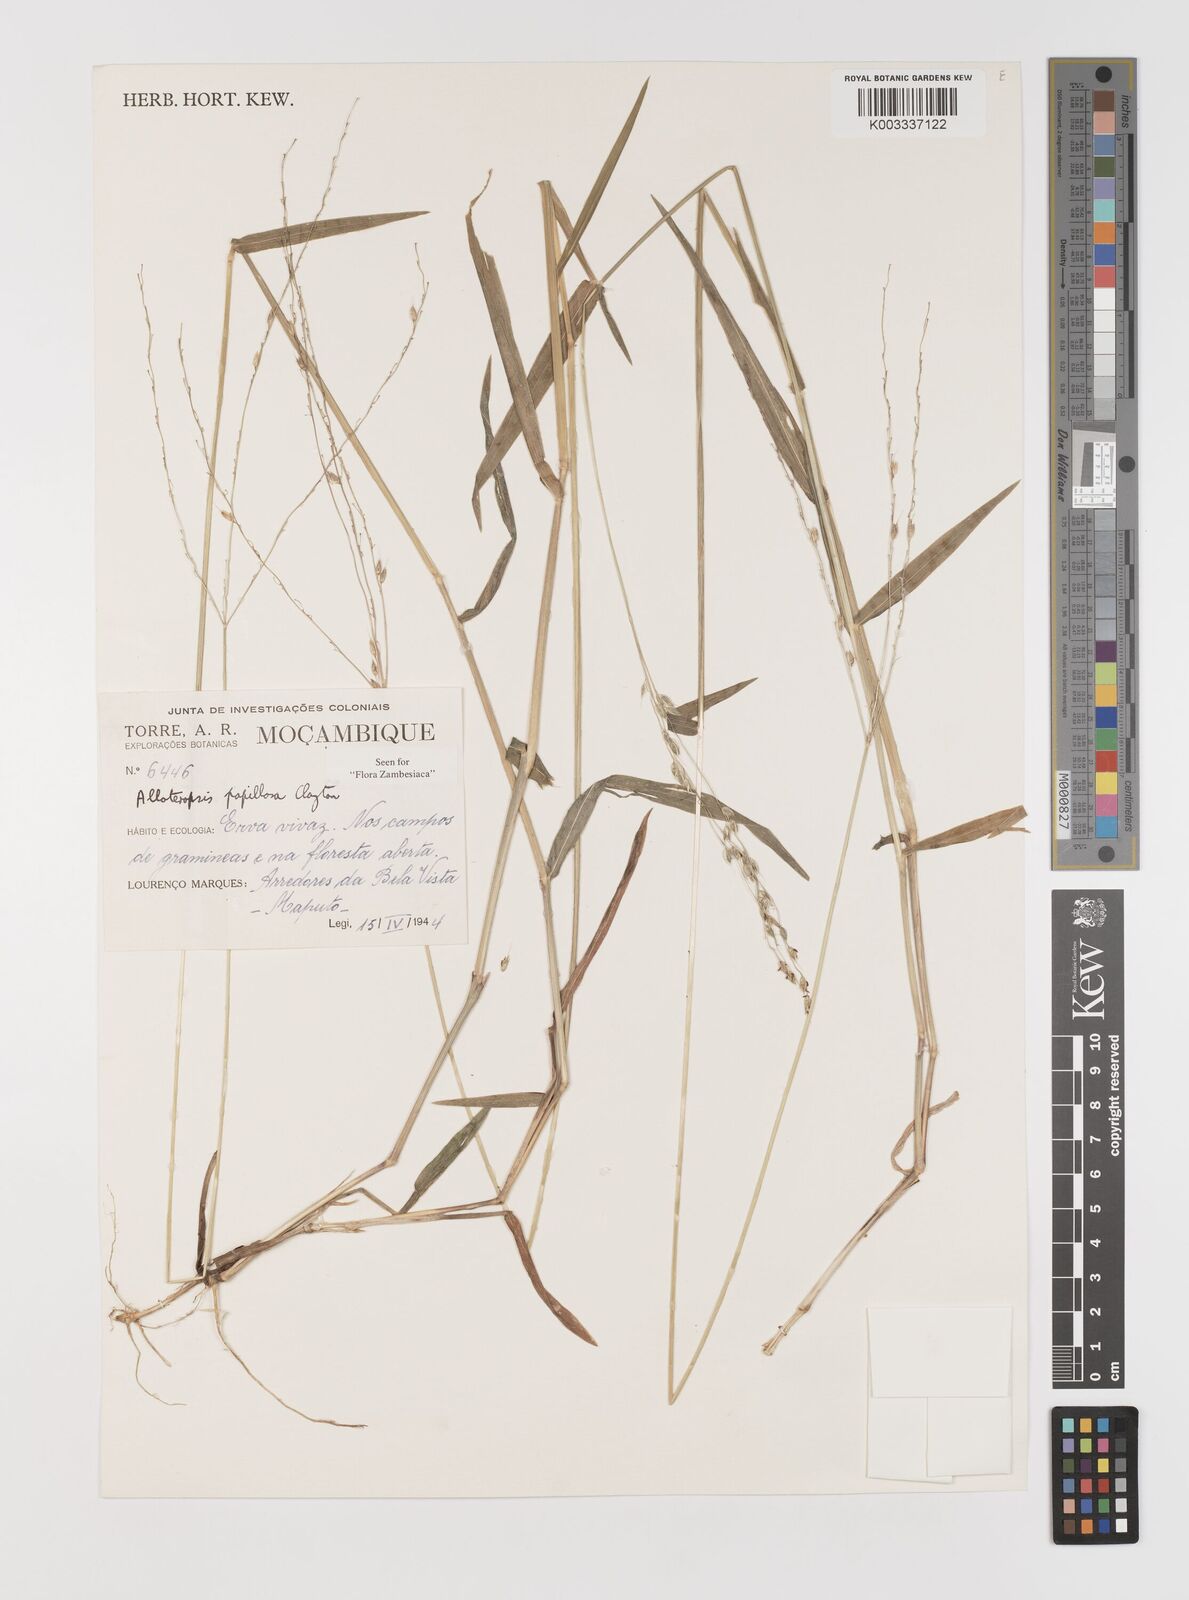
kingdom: Plantae
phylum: Tracheophyta
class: Liliopsida
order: Poales
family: Poaceae
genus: Alloteropsis
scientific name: Alloteropsis papillosa
